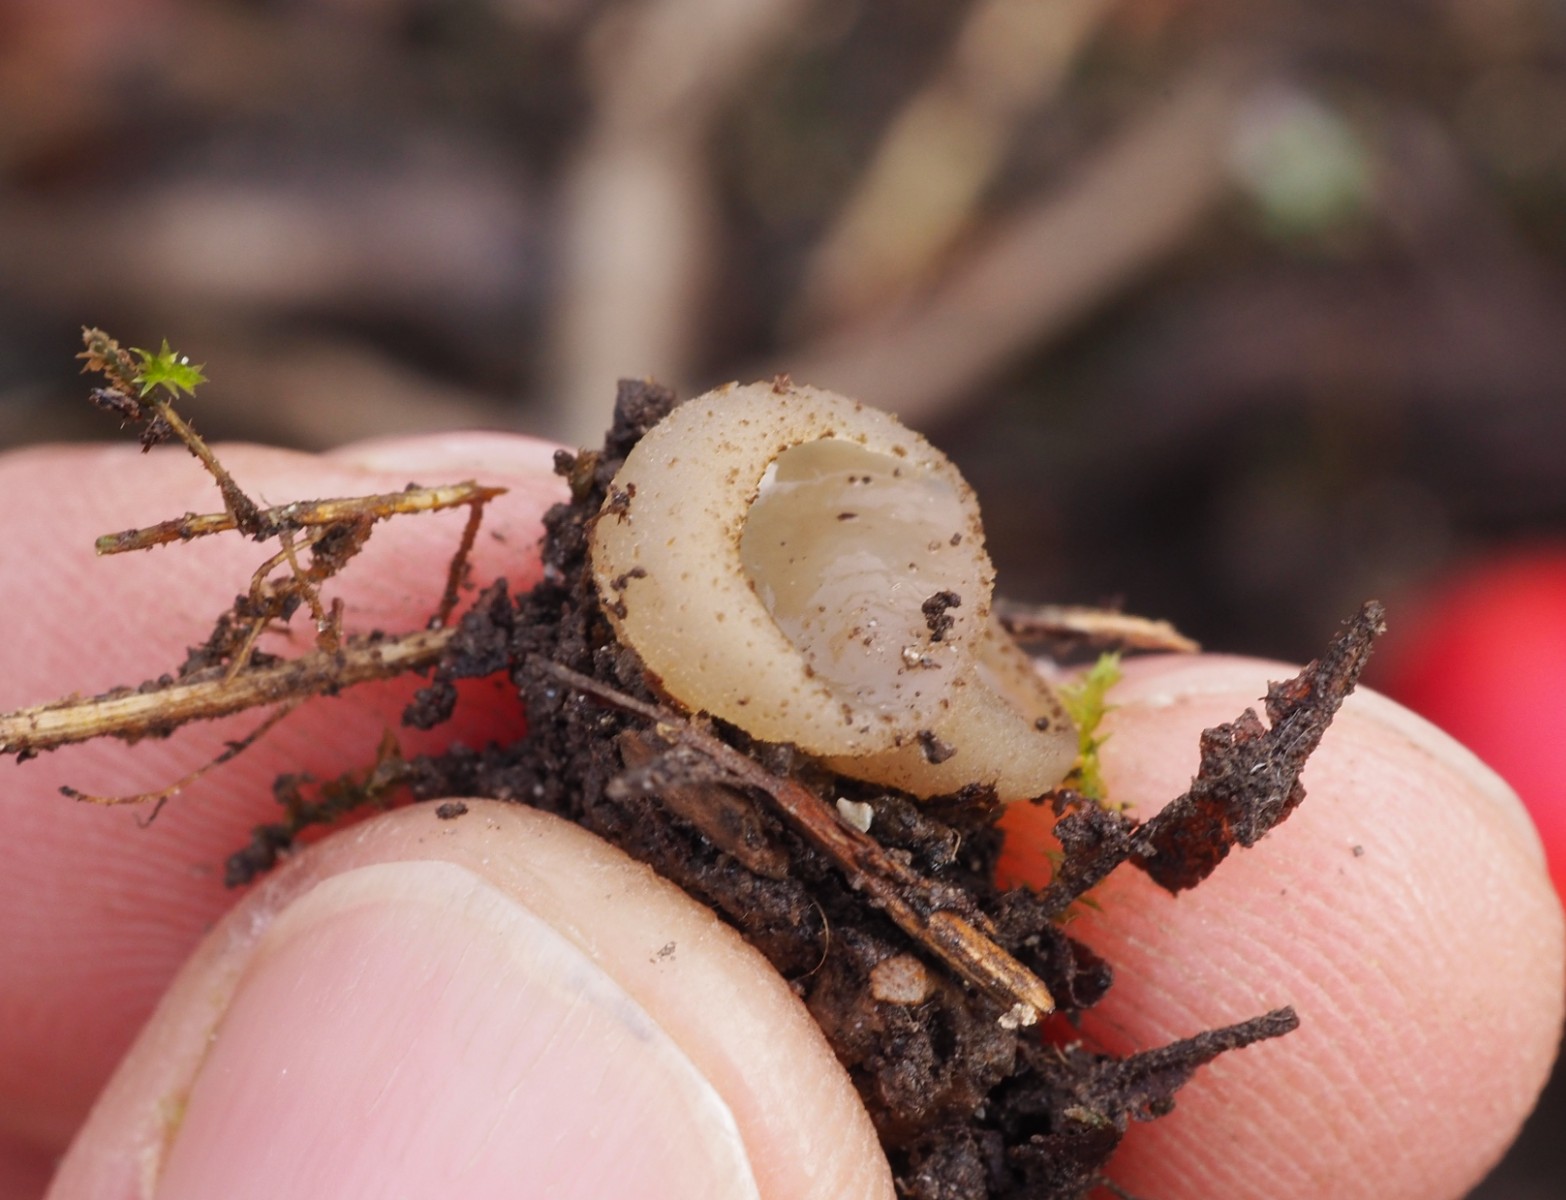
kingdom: Fungi
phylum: Ascomycota
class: Pezizomycetes
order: Pezizales
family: Pezizaceae
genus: Peziza
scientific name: Peziza
